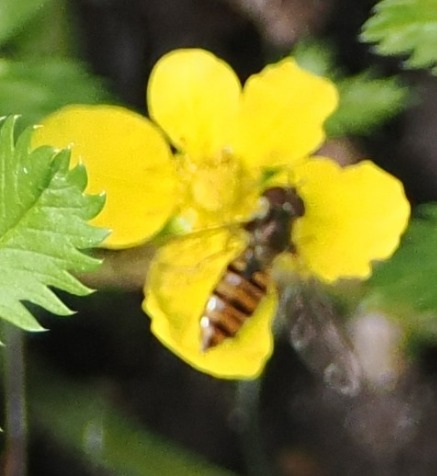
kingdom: Animalia
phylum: Arthropoda
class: Insecta
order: Diptera
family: Syrphidae
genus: Episyrphus
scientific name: Episyrphus balteatus
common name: Dobbeltbåndet svirreflue
